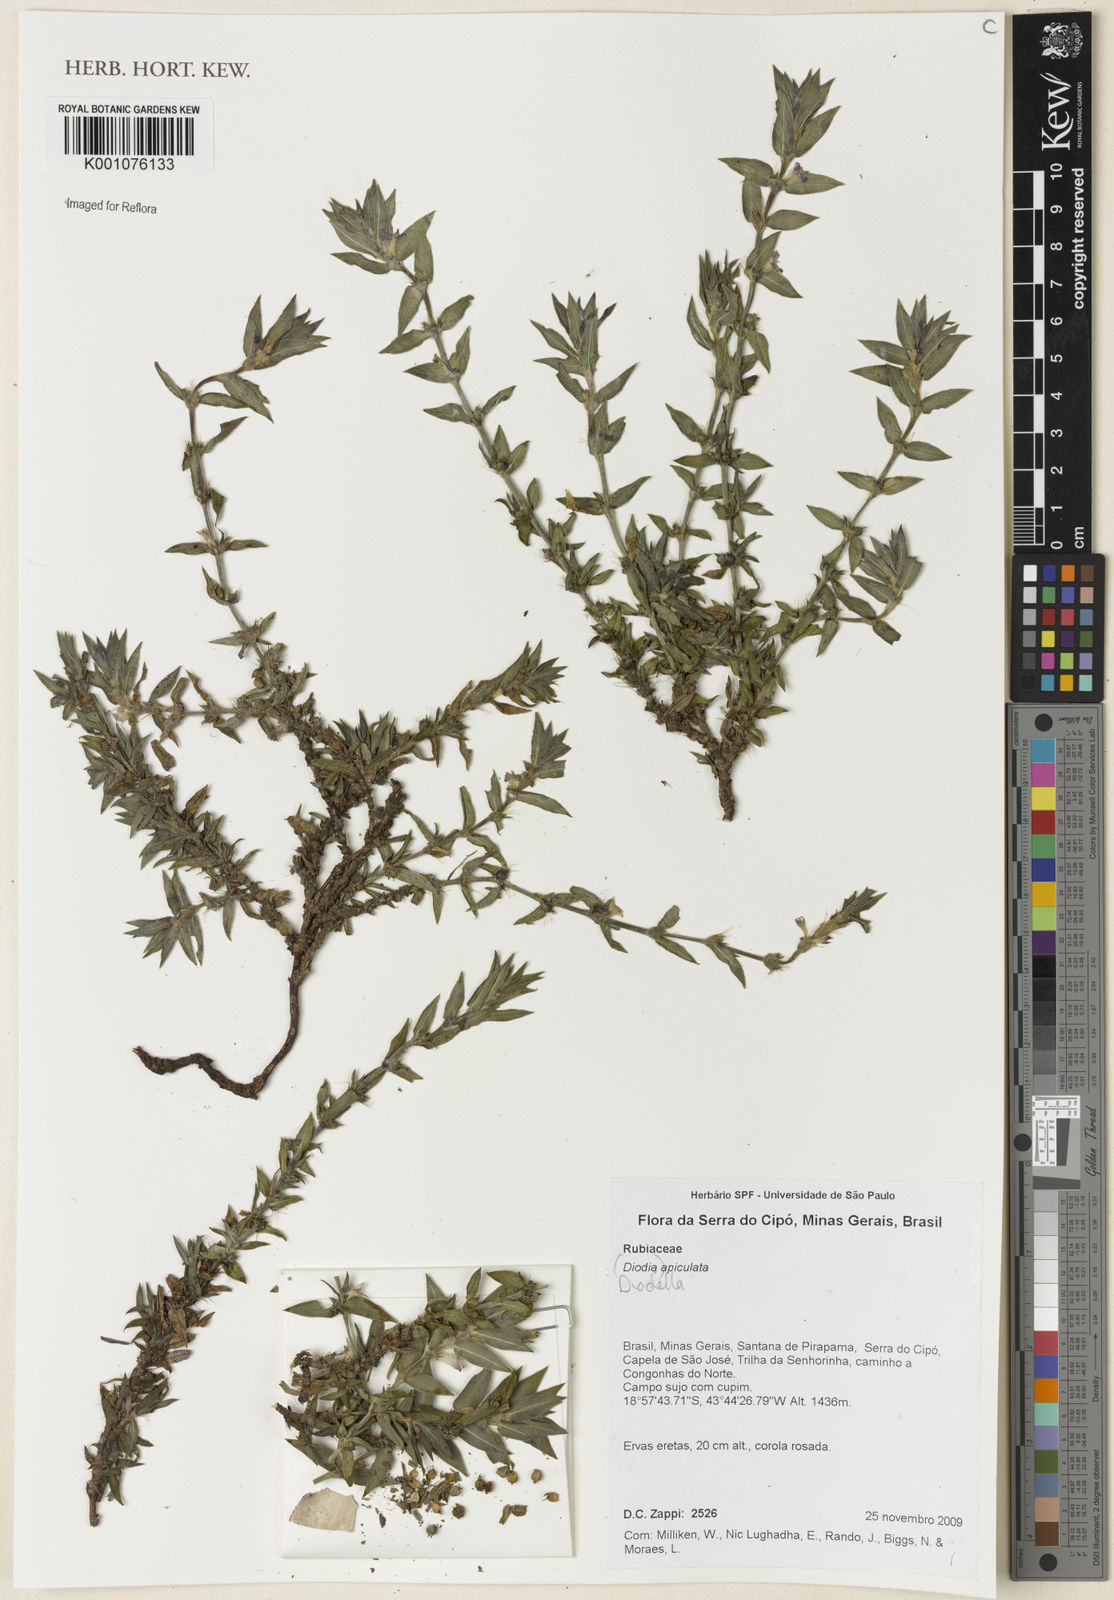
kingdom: Plantae
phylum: Tracheophyta
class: Magnoliopsida
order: Gentianales
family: Rubiaceae
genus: Hexasepalum
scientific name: Hexasepalum
